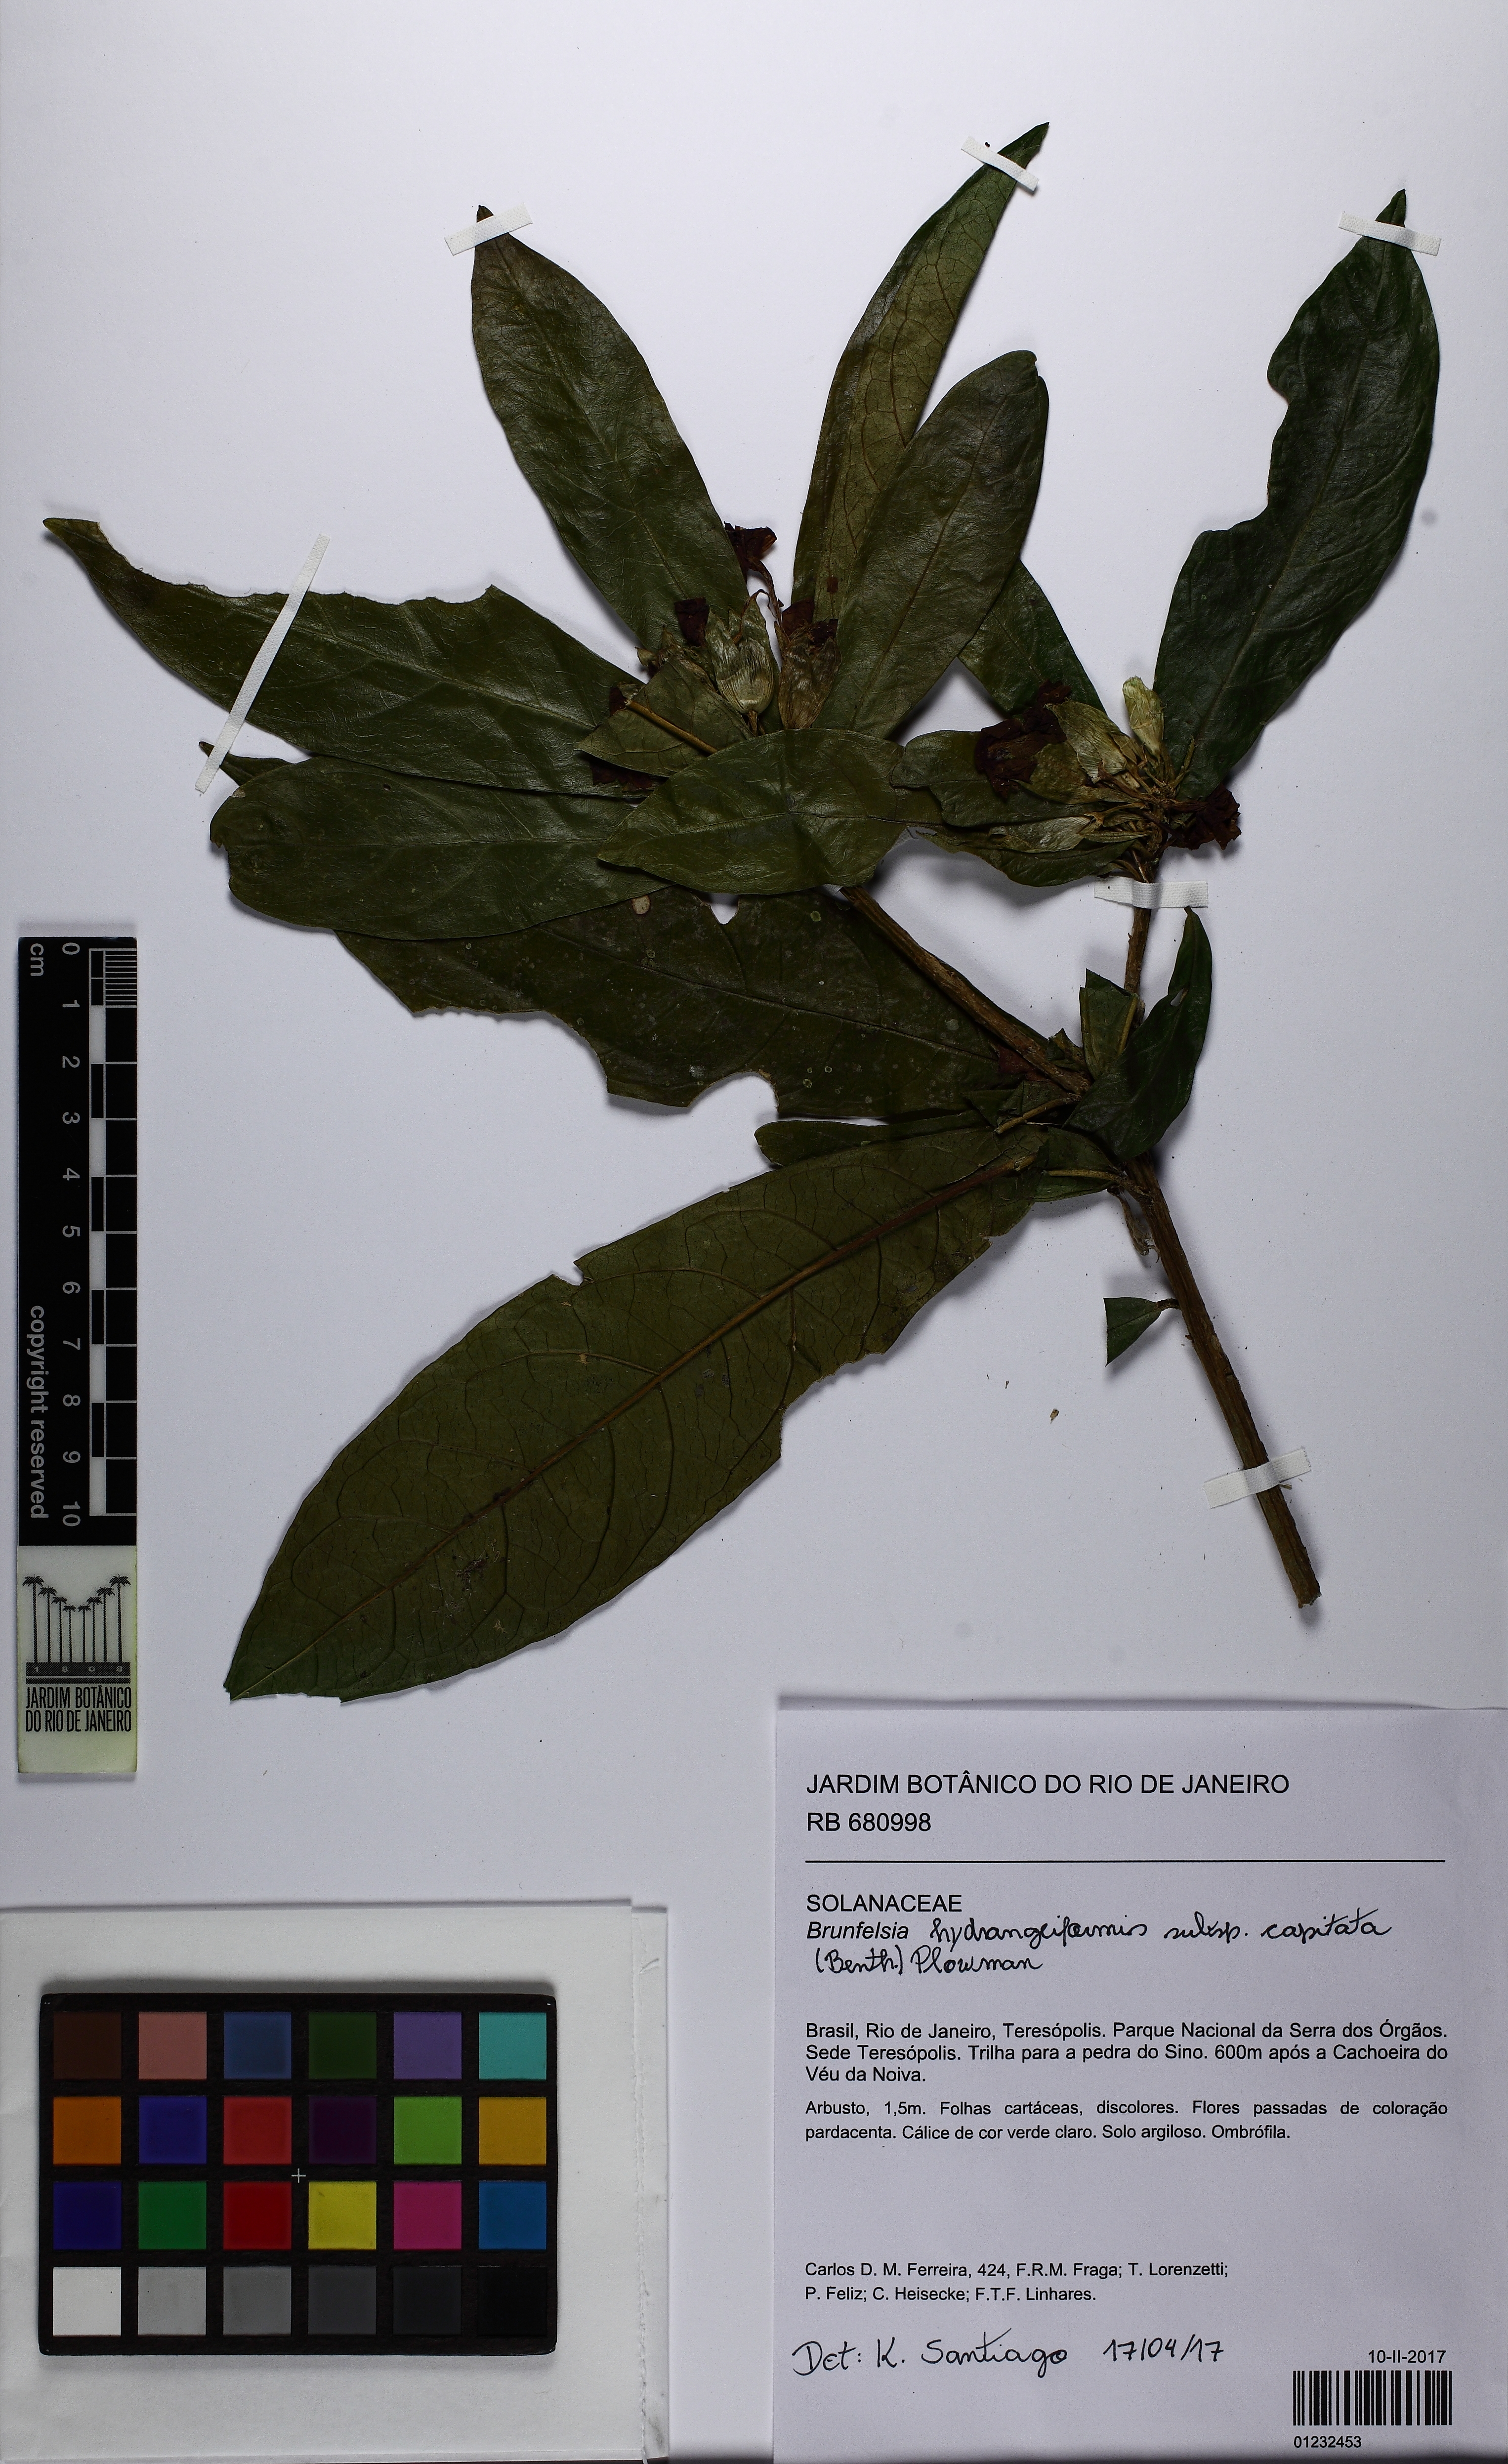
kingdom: Plantae
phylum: Tracheophyta
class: Magnoliopsida
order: Solanales
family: Solanaceae
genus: Brunfelsia
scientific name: Brunfelsia hydrangeiformis
